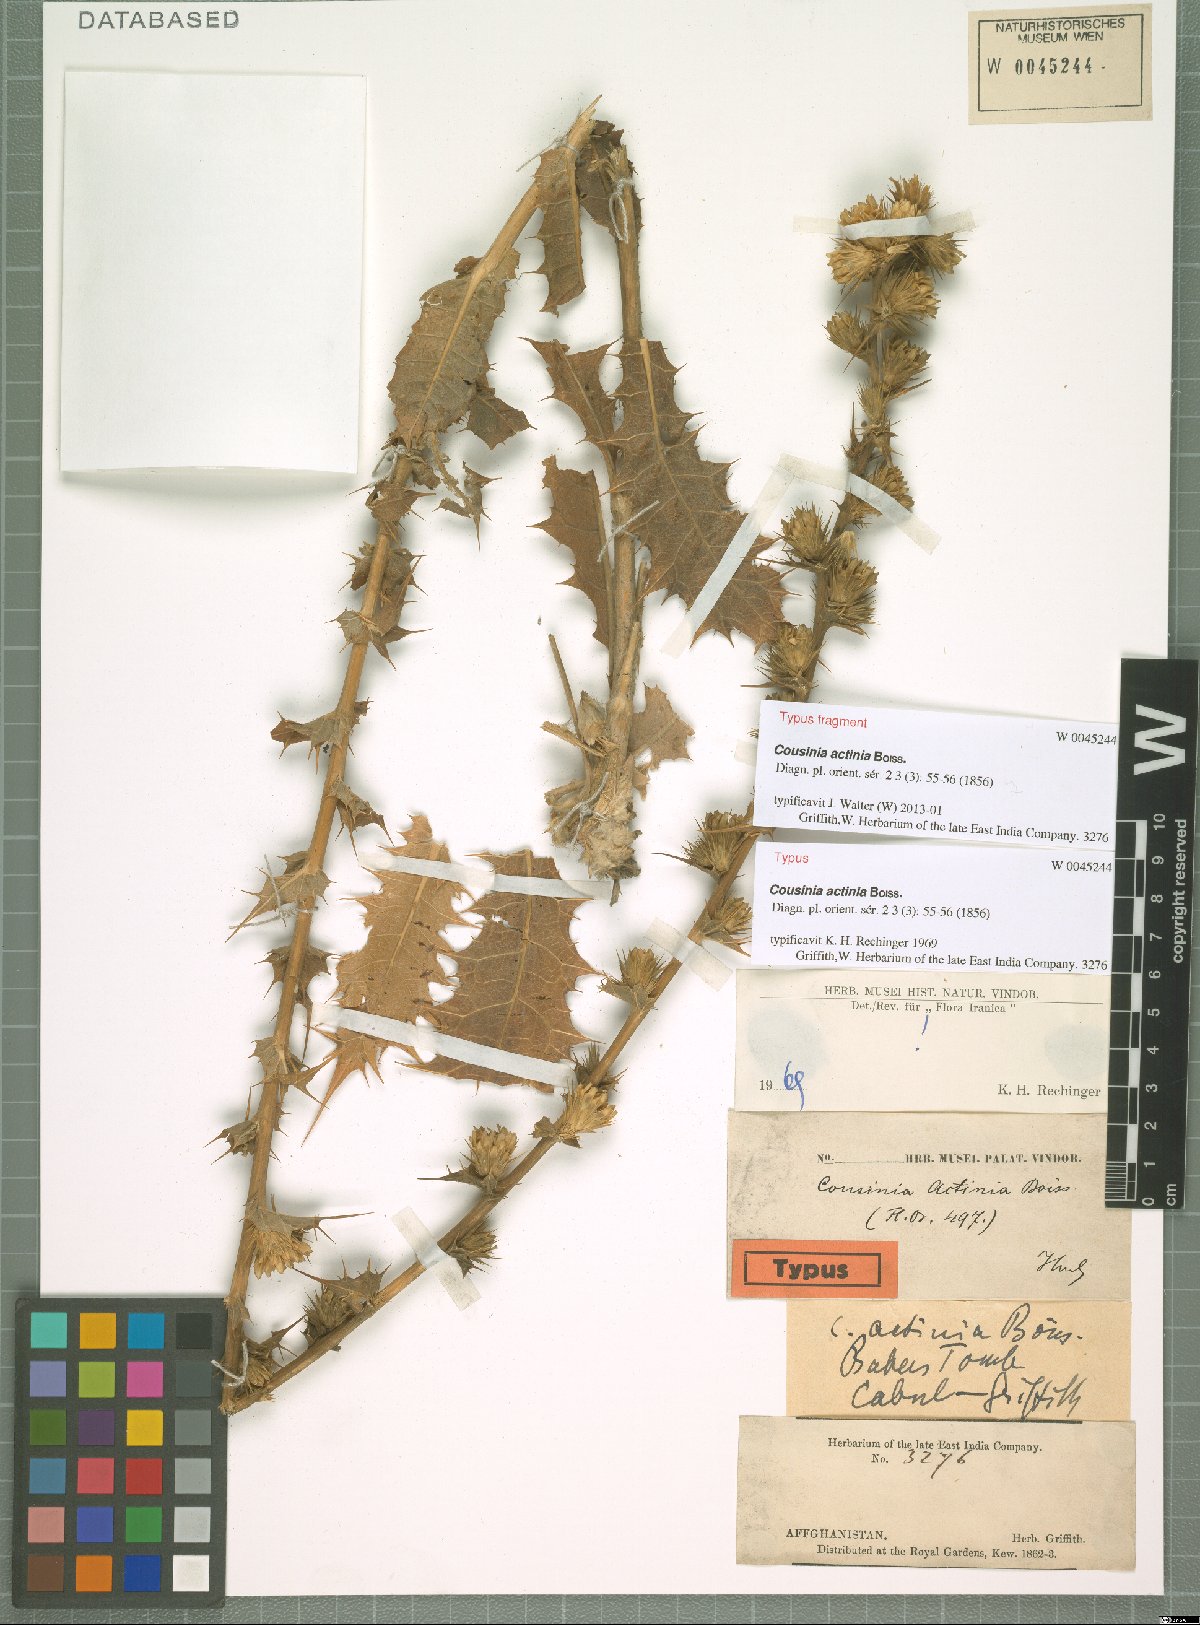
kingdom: Plantae
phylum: Tracheophyta
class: Magnoliopsida
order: Asterales
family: Asteraceae
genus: Cousinia
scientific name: Cousinia actinia
